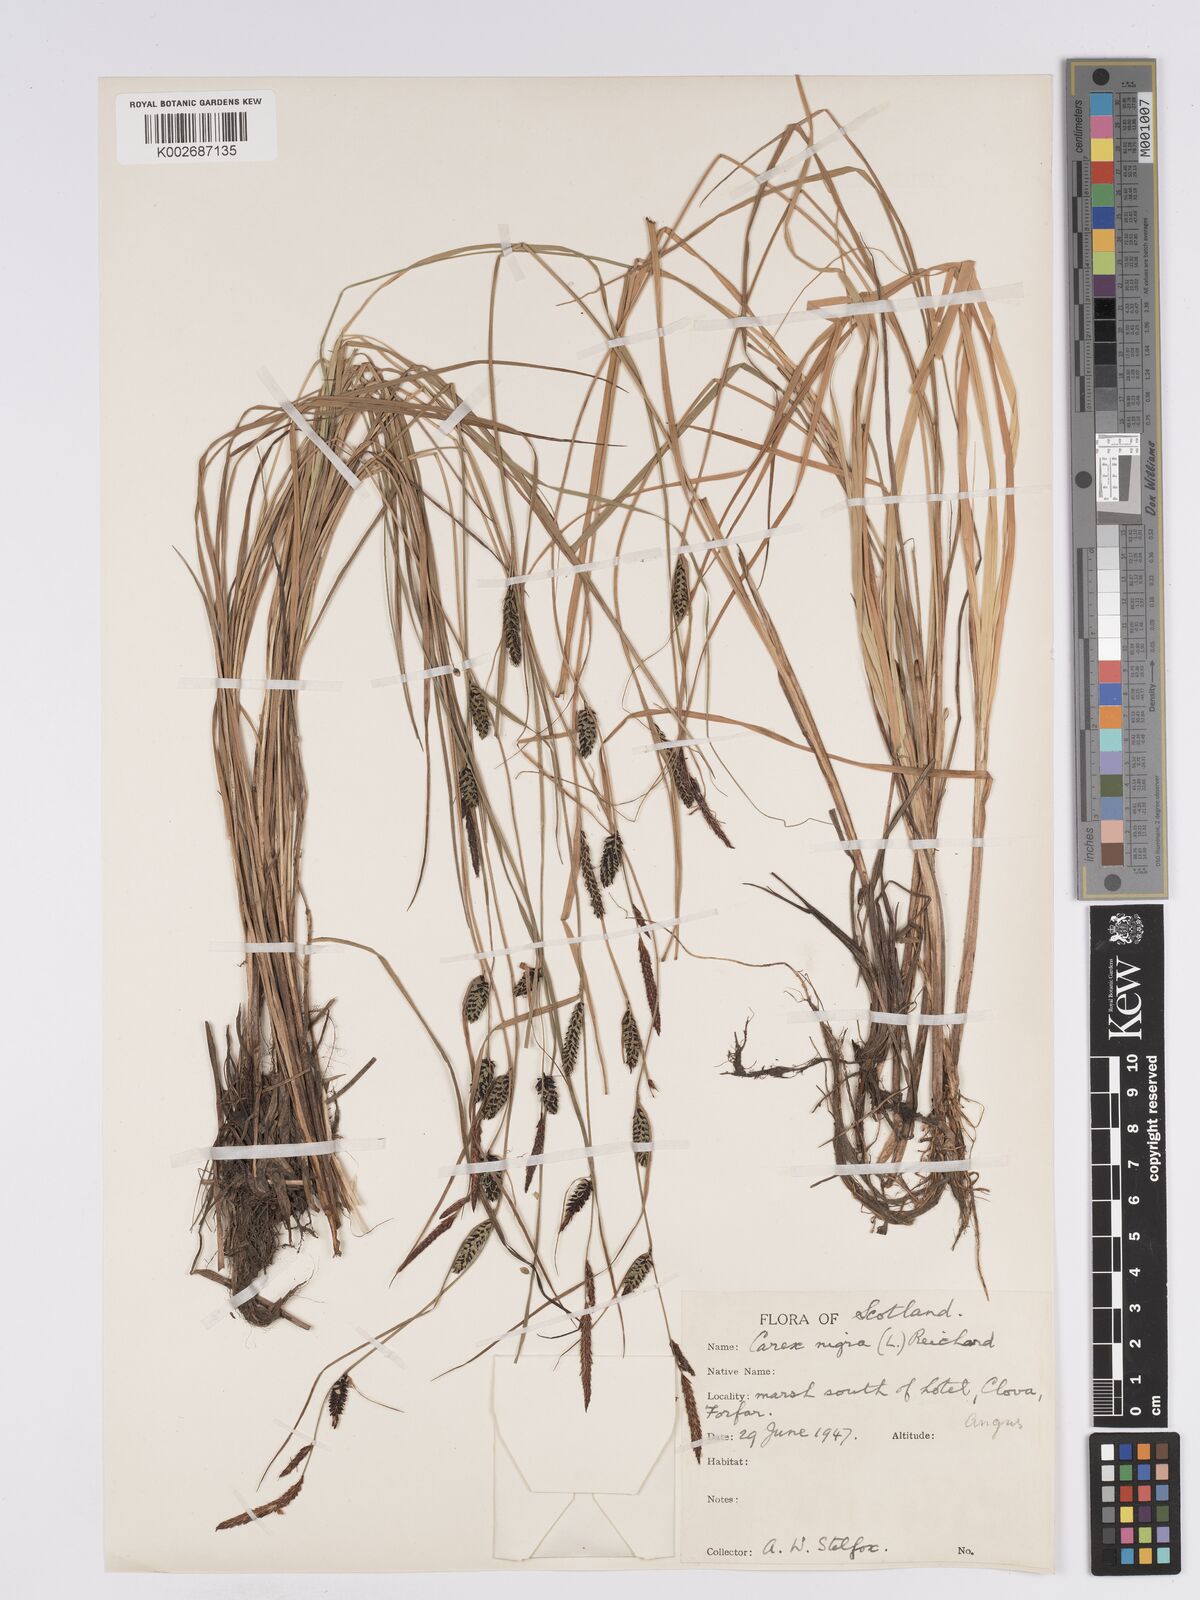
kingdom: Plantae
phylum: Tracheophyta
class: Liliopsida
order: Poales
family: Cyperaceae
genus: Carex
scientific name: Carex nigra
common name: Common sedge
